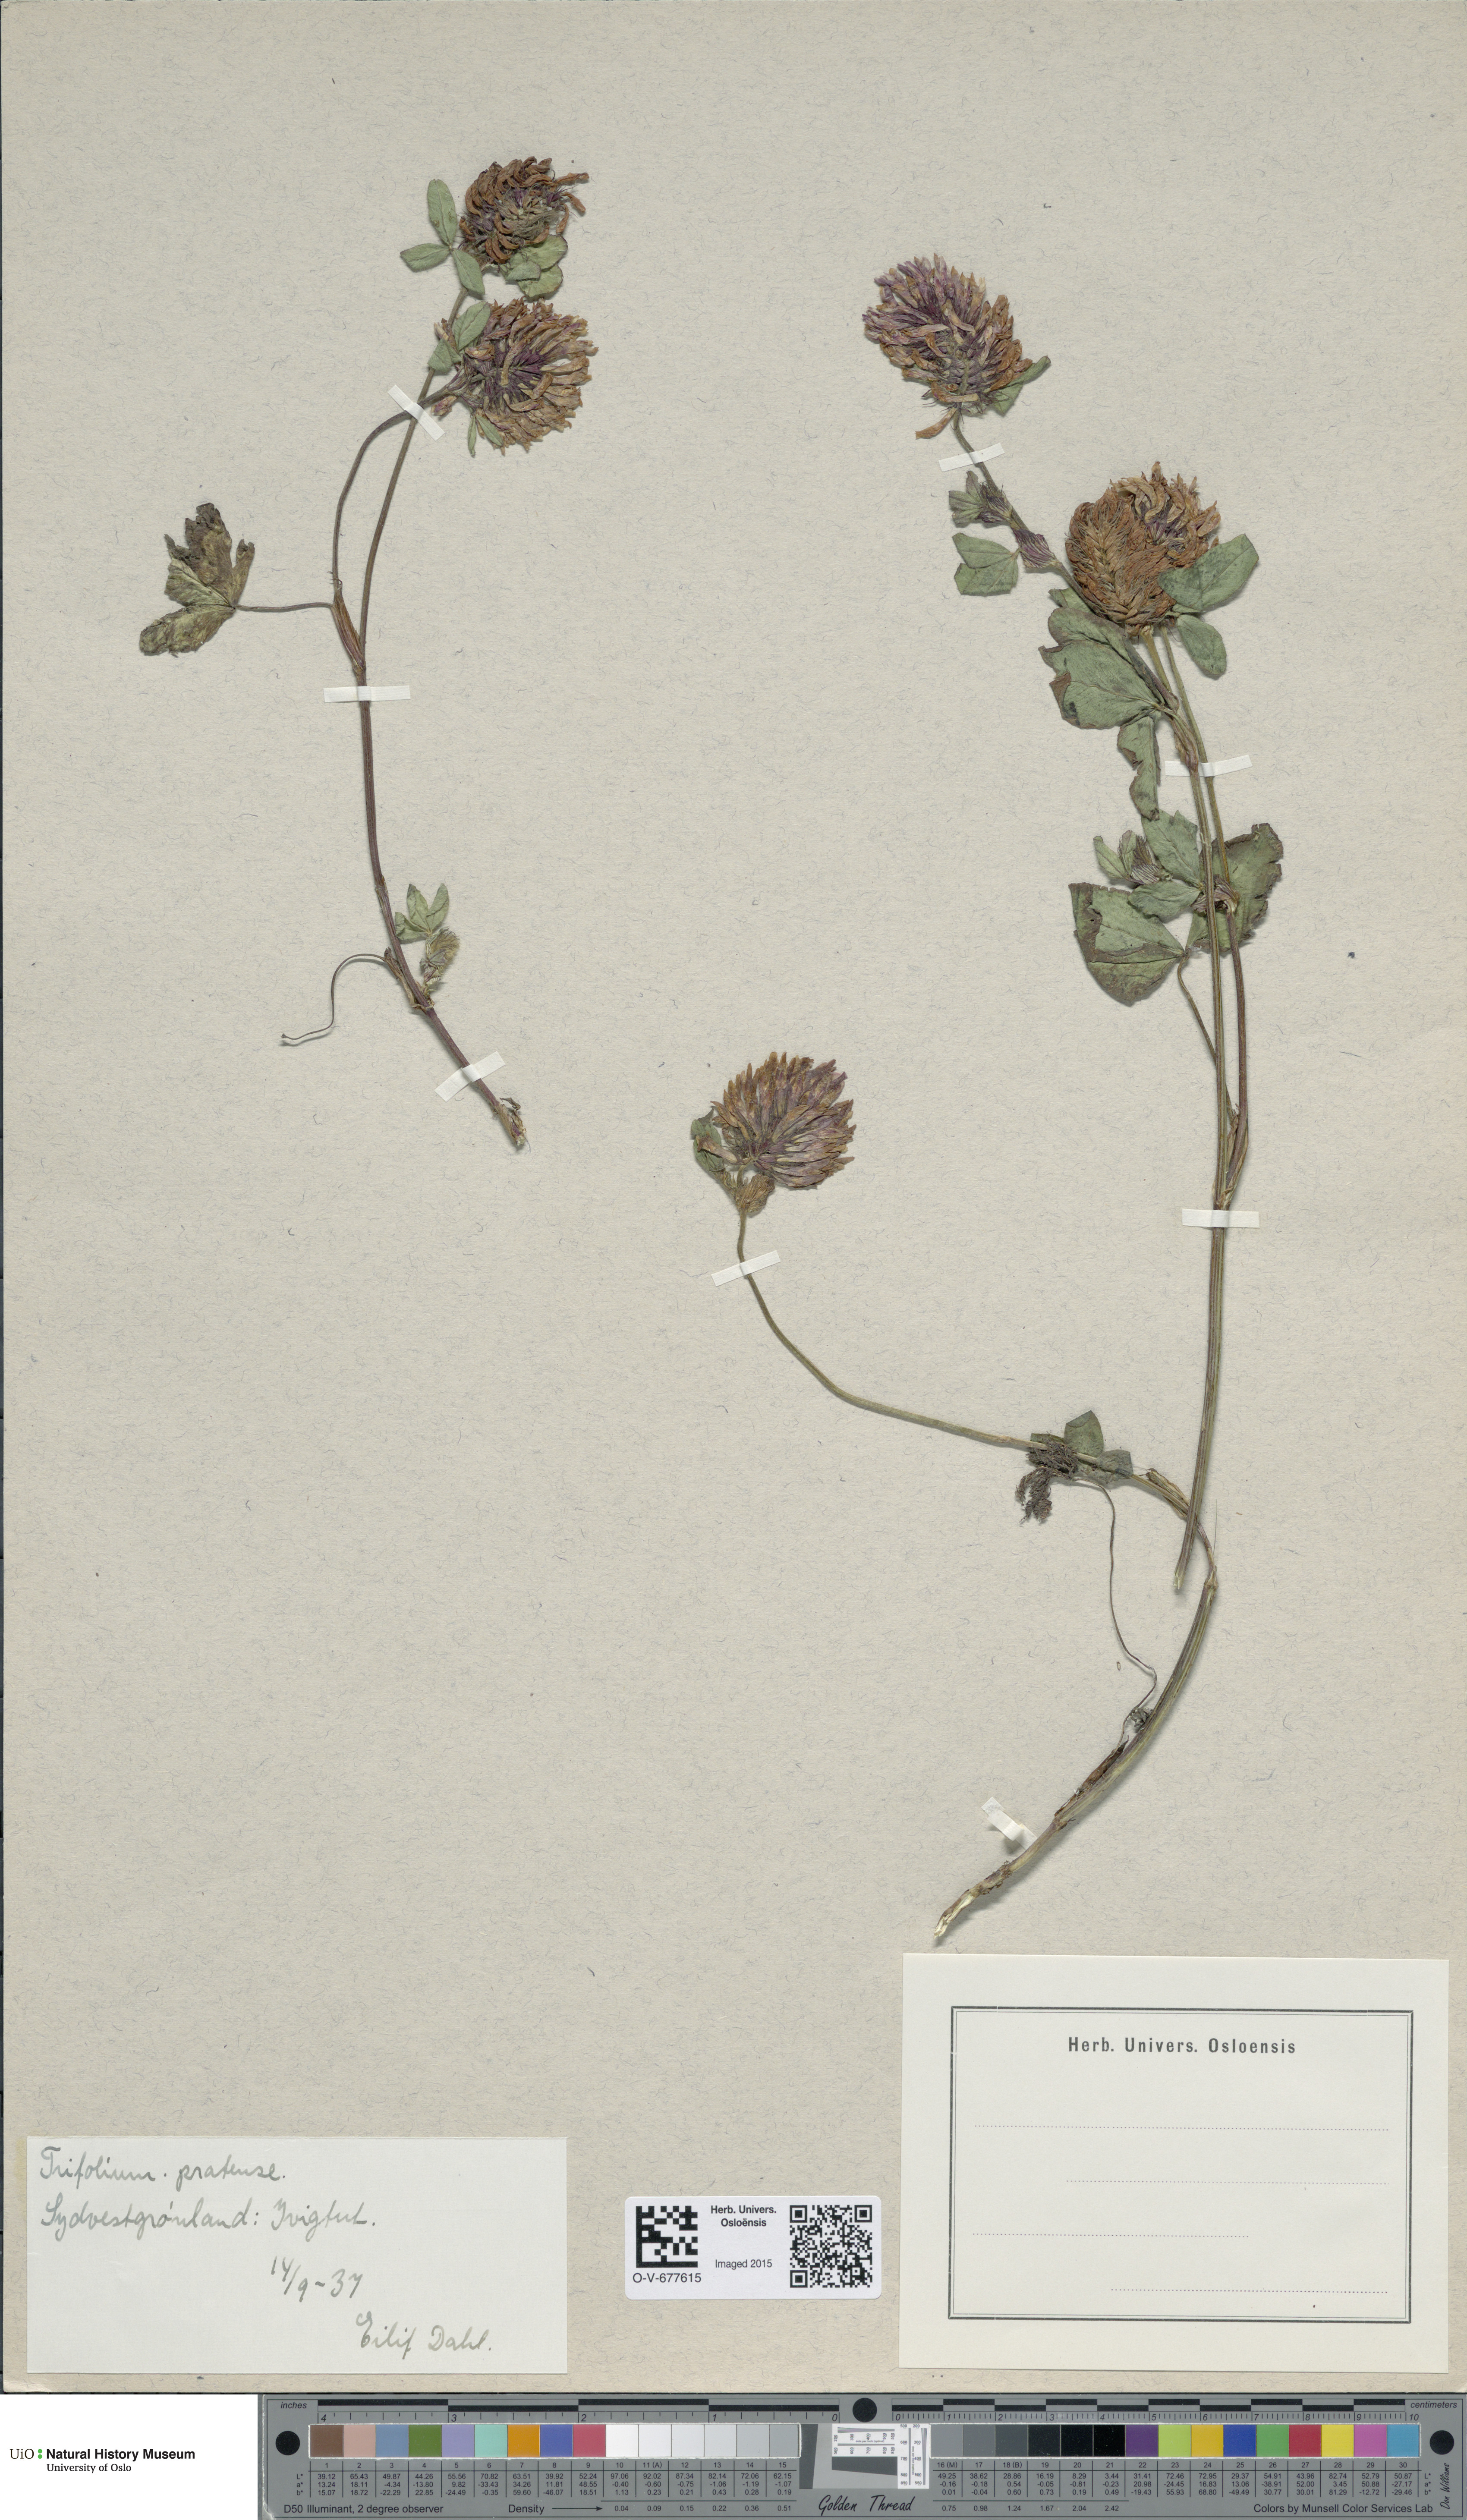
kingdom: Plantae
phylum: Tracheophyta
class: Magnoliopsida
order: Fabales
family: Fabaceae
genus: Trifolium
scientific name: Trifolium pratense
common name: Red clover
